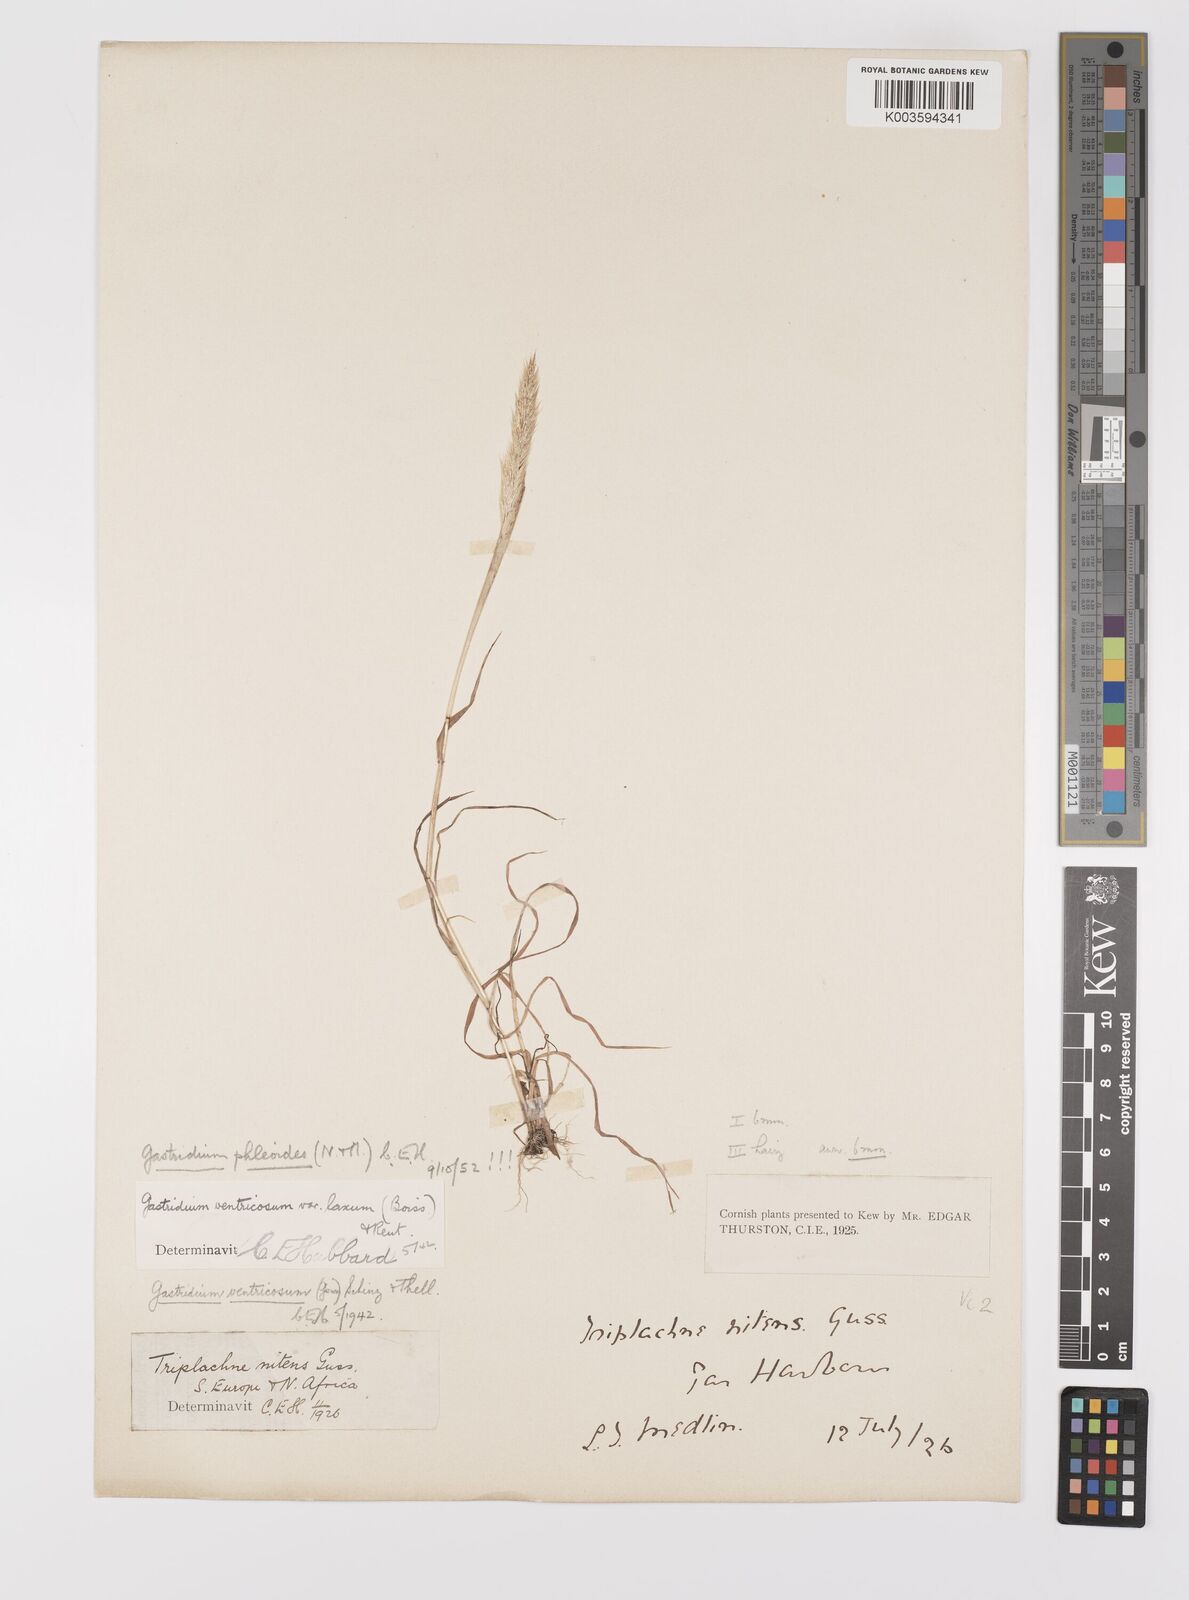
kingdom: Plantae
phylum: Tracheophyta
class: Liliopsida
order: Poales
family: Poaceae
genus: Gastridium
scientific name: Gastridium phleoides
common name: Nit grass
